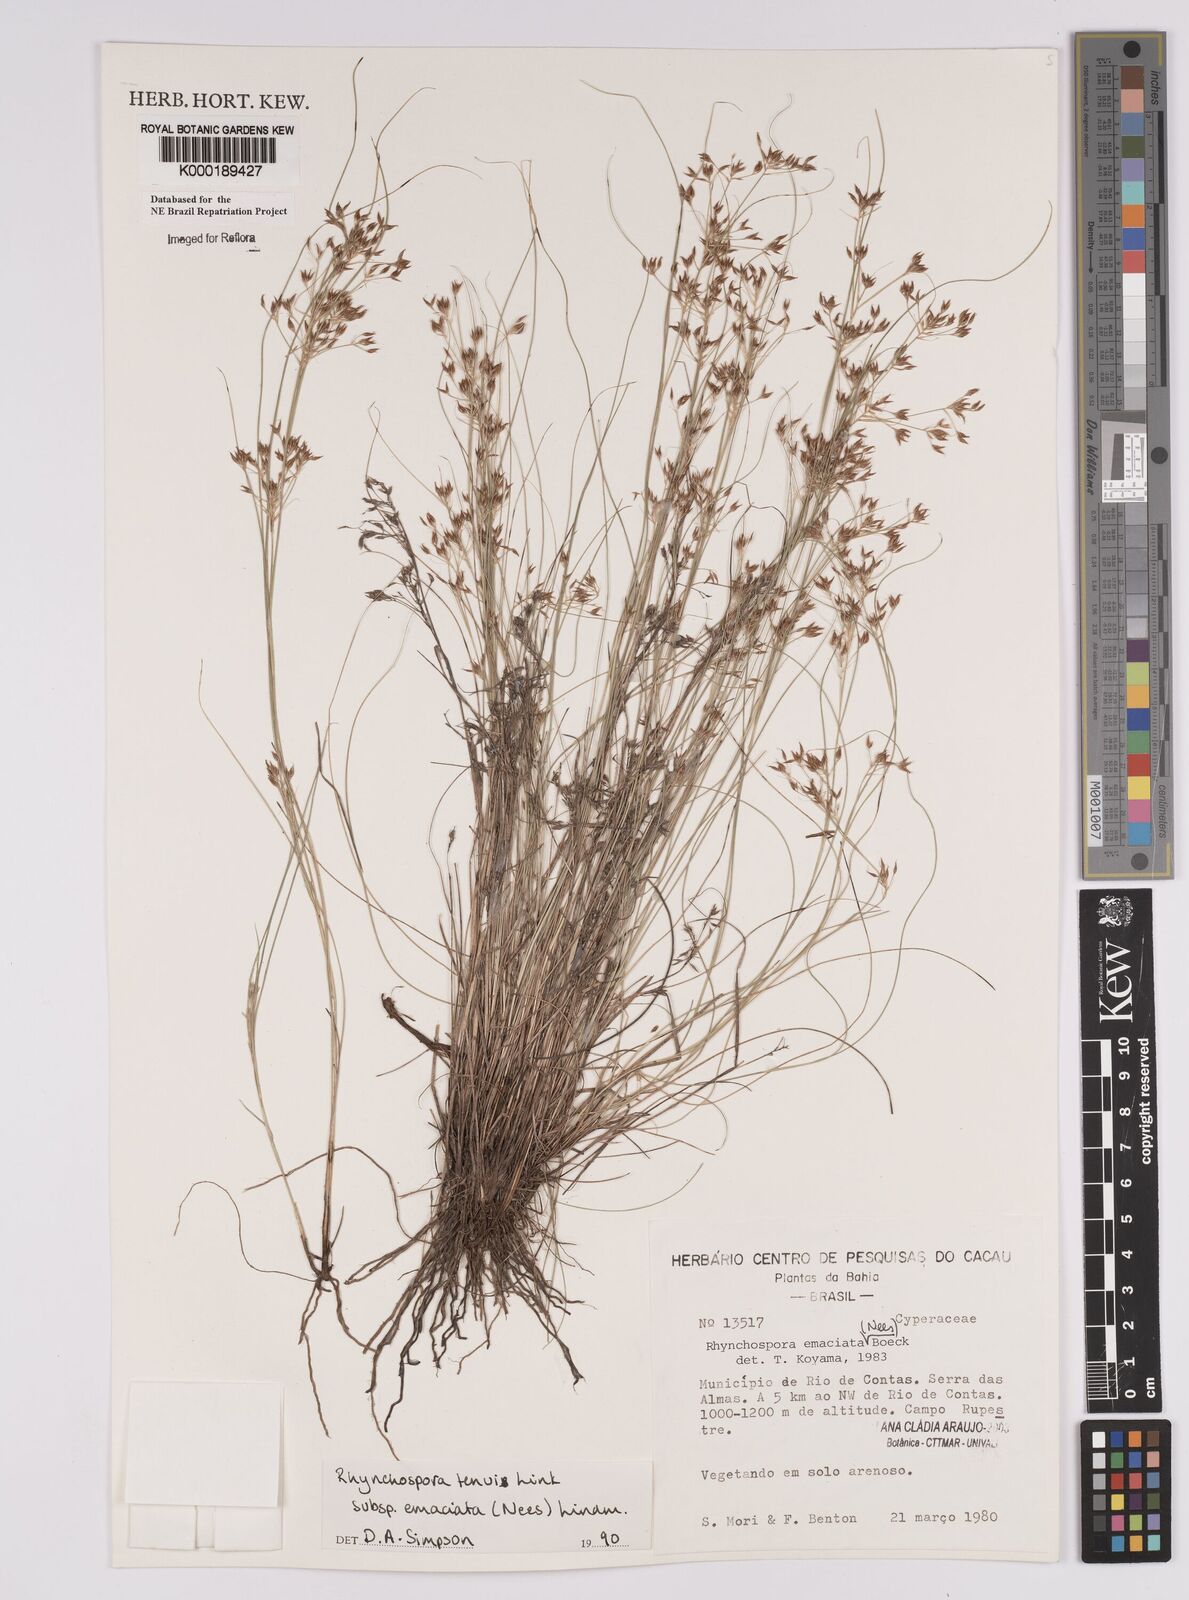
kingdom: Plantae
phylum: Tracheophyta
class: Liliopsida
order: Poales
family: Cyperaceae
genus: Rhynchospora
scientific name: Rhynchospora emaciata
